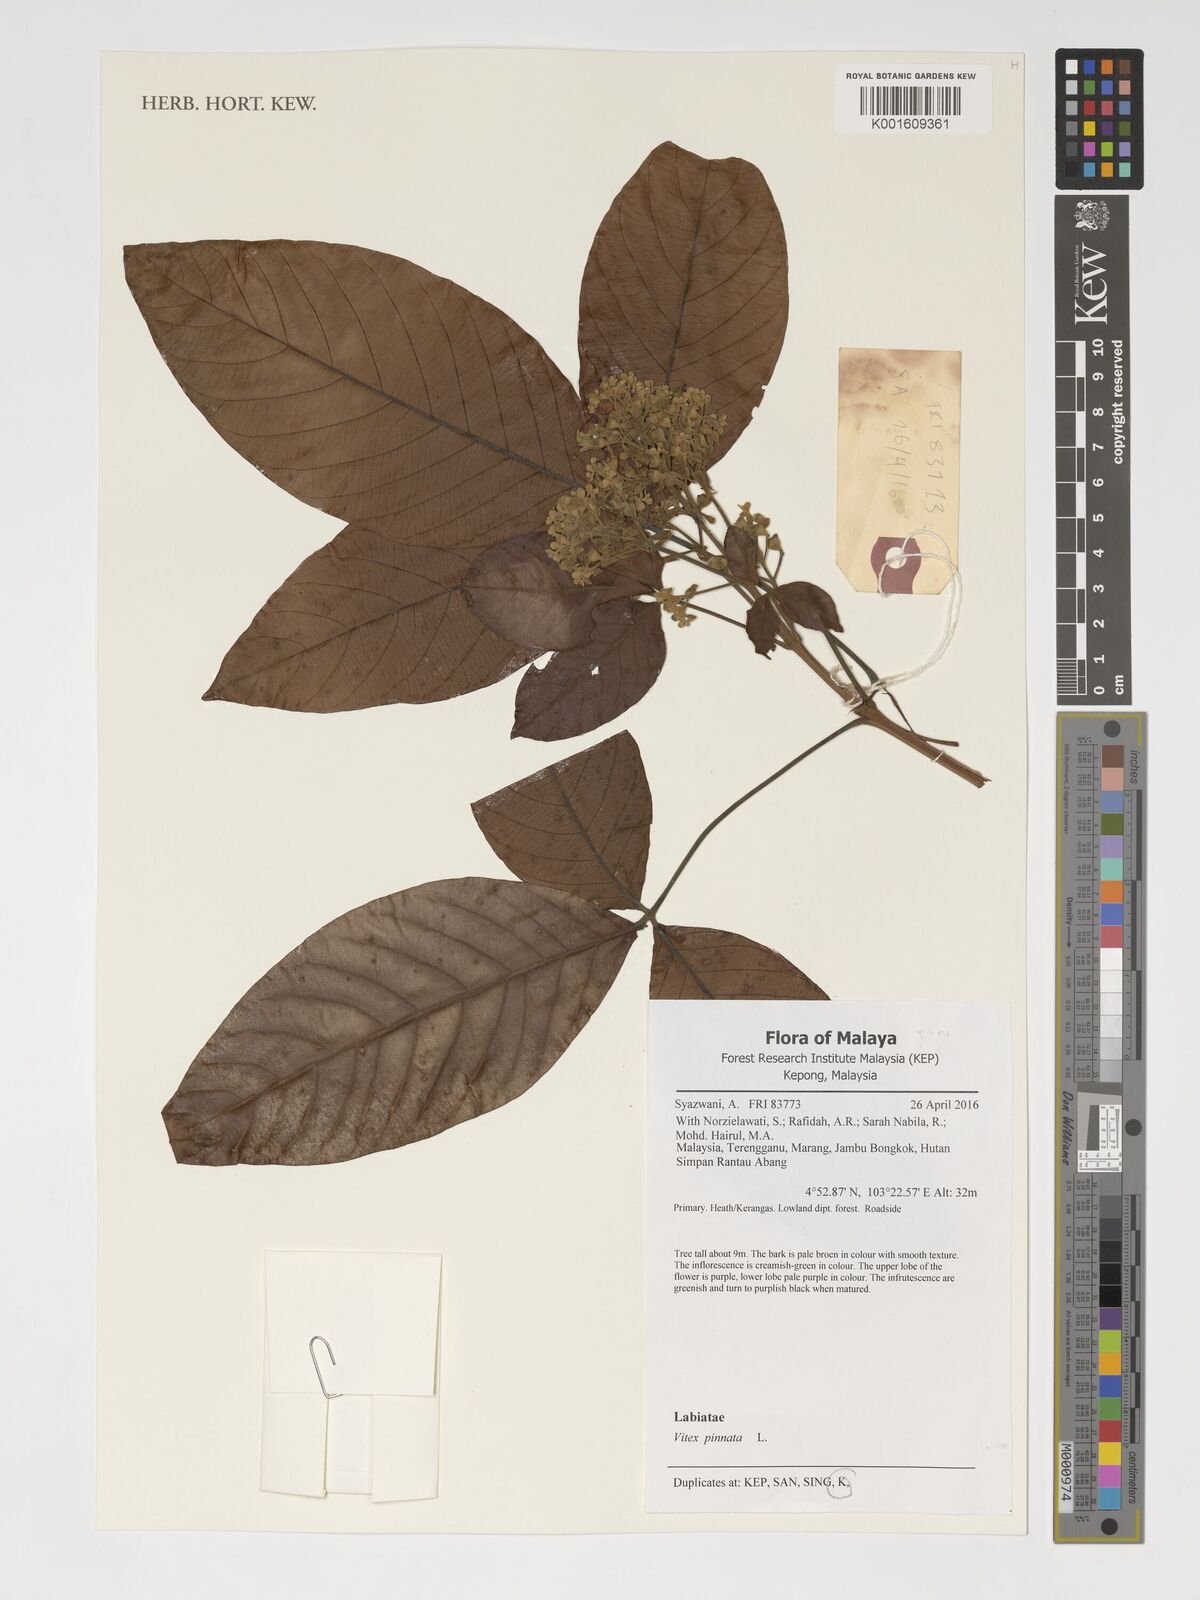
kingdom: Plantae
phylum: Tracheophyta
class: Magnoliopsida
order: Lamiales
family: Lamiaceae
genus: Vitex
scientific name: Vitex pinnata
